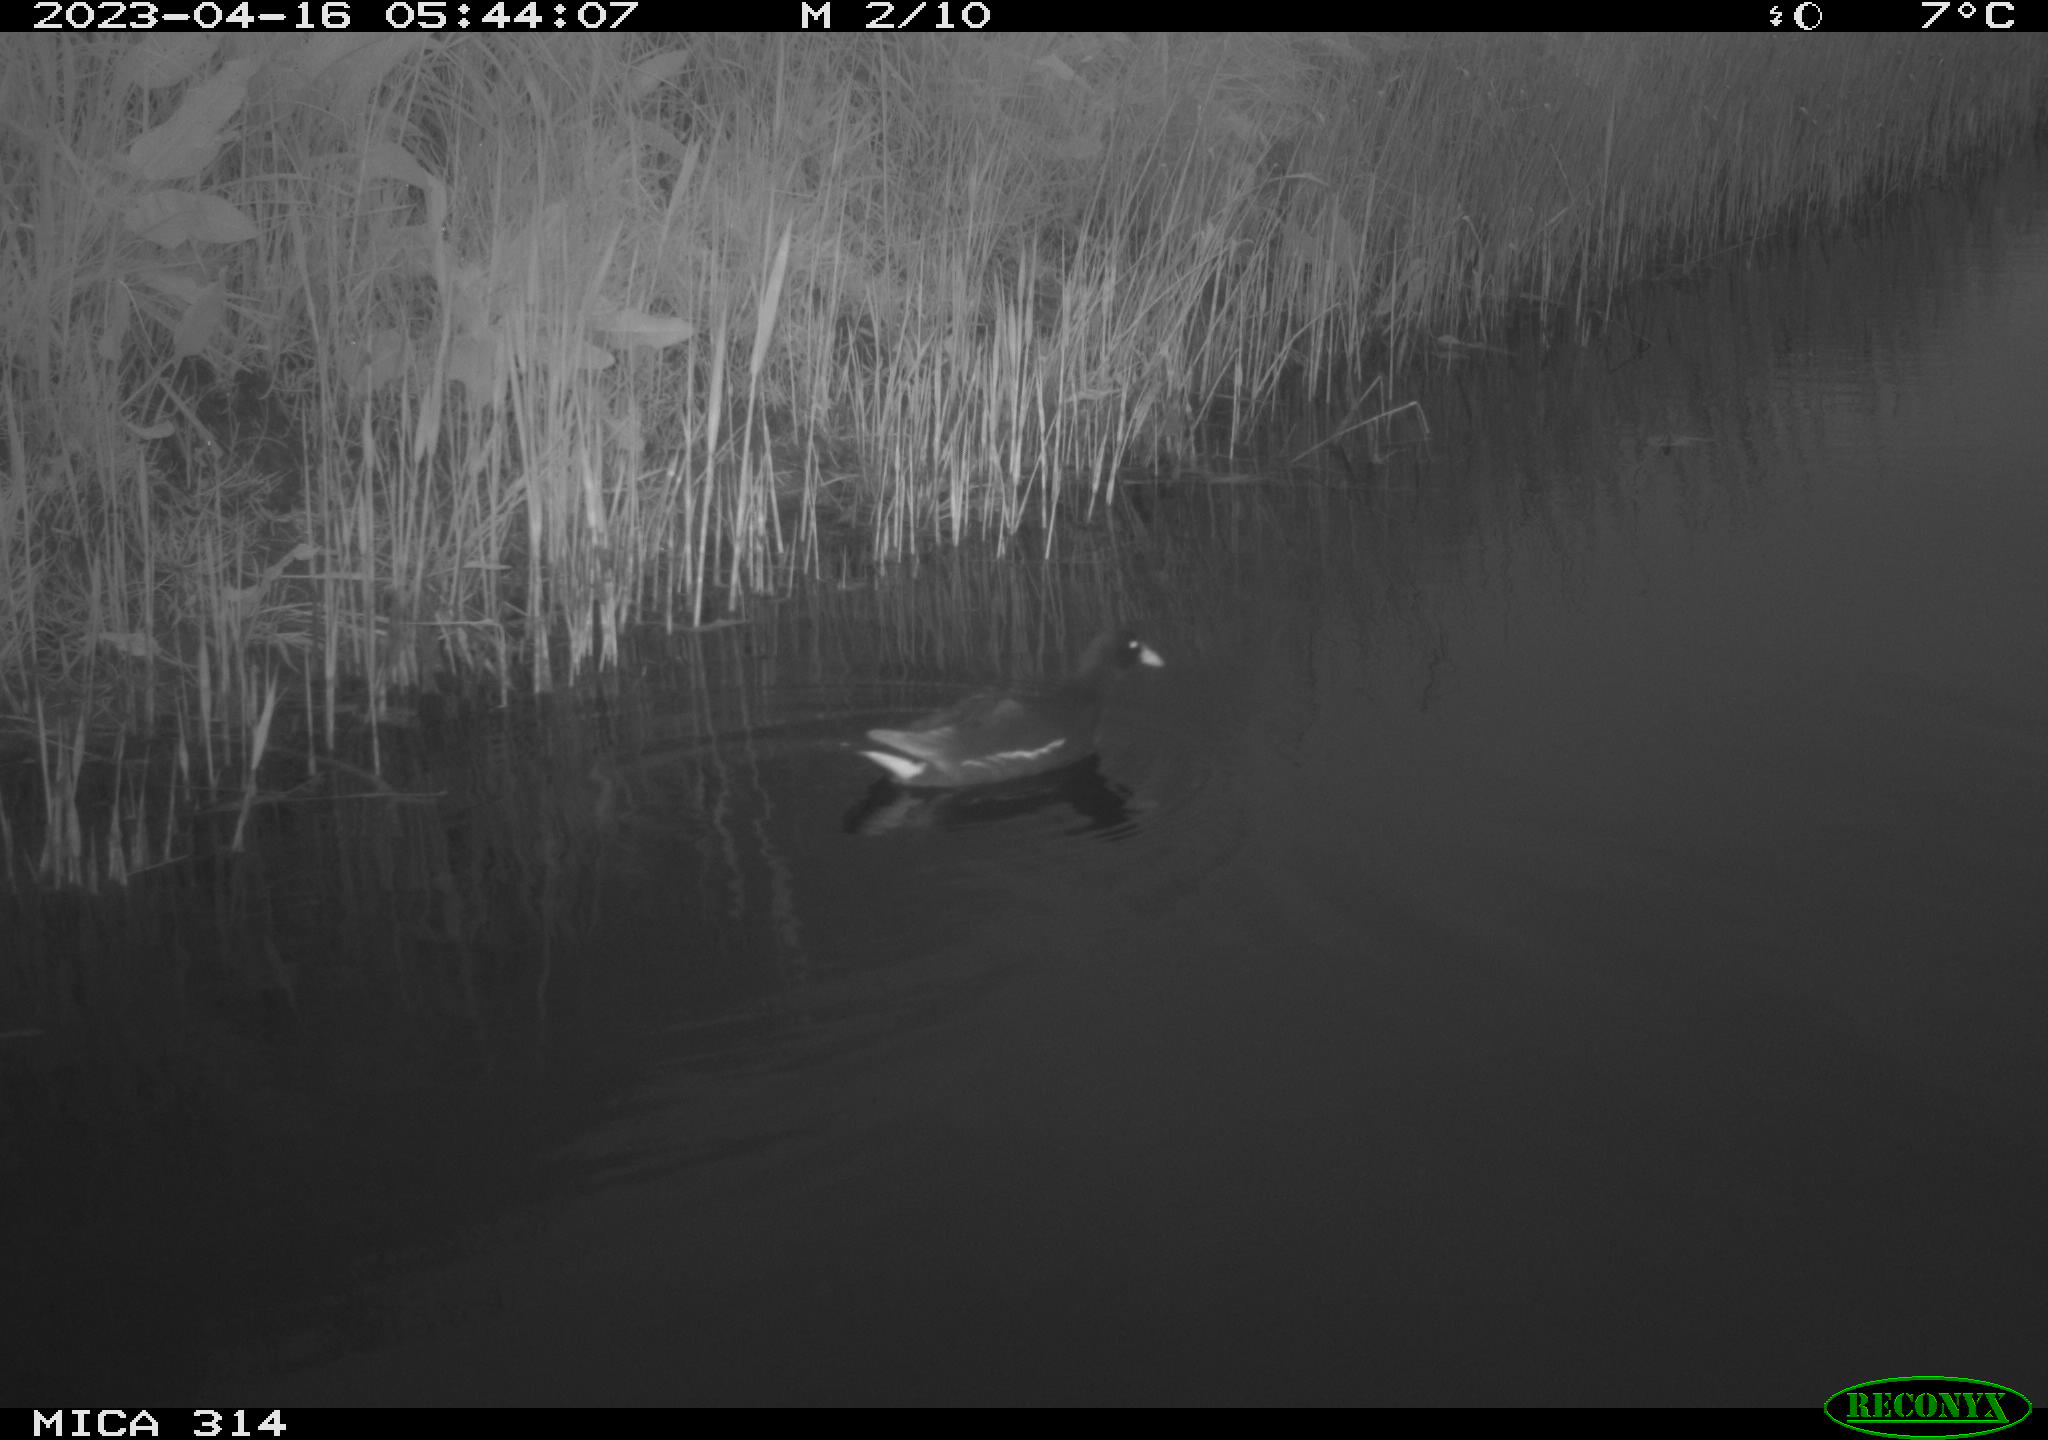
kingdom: Animalia
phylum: Chordata
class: Aves
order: Gruiformes
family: Rallidae
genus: Gallinula
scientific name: Gallinula chloropus
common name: Common moorhen
